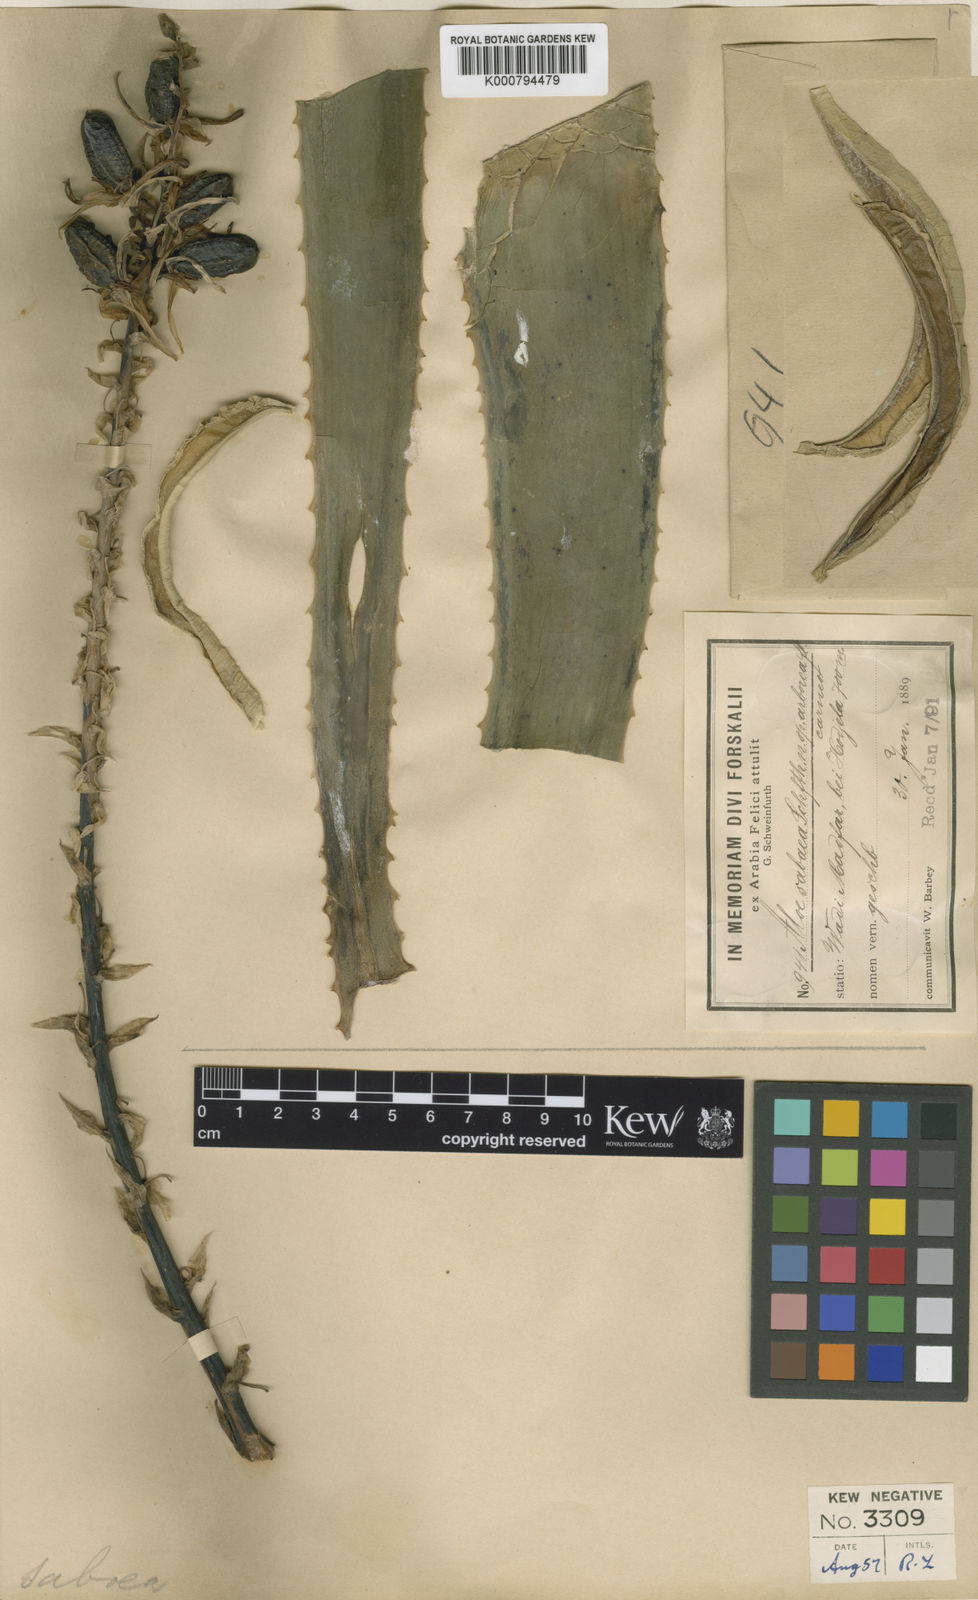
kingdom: Plantae
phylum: Tracheophyta
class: Liliopsida
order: Asparagales
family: Asphodelaceae
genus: Aloidendron
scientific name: Aloidendron sabaeum
